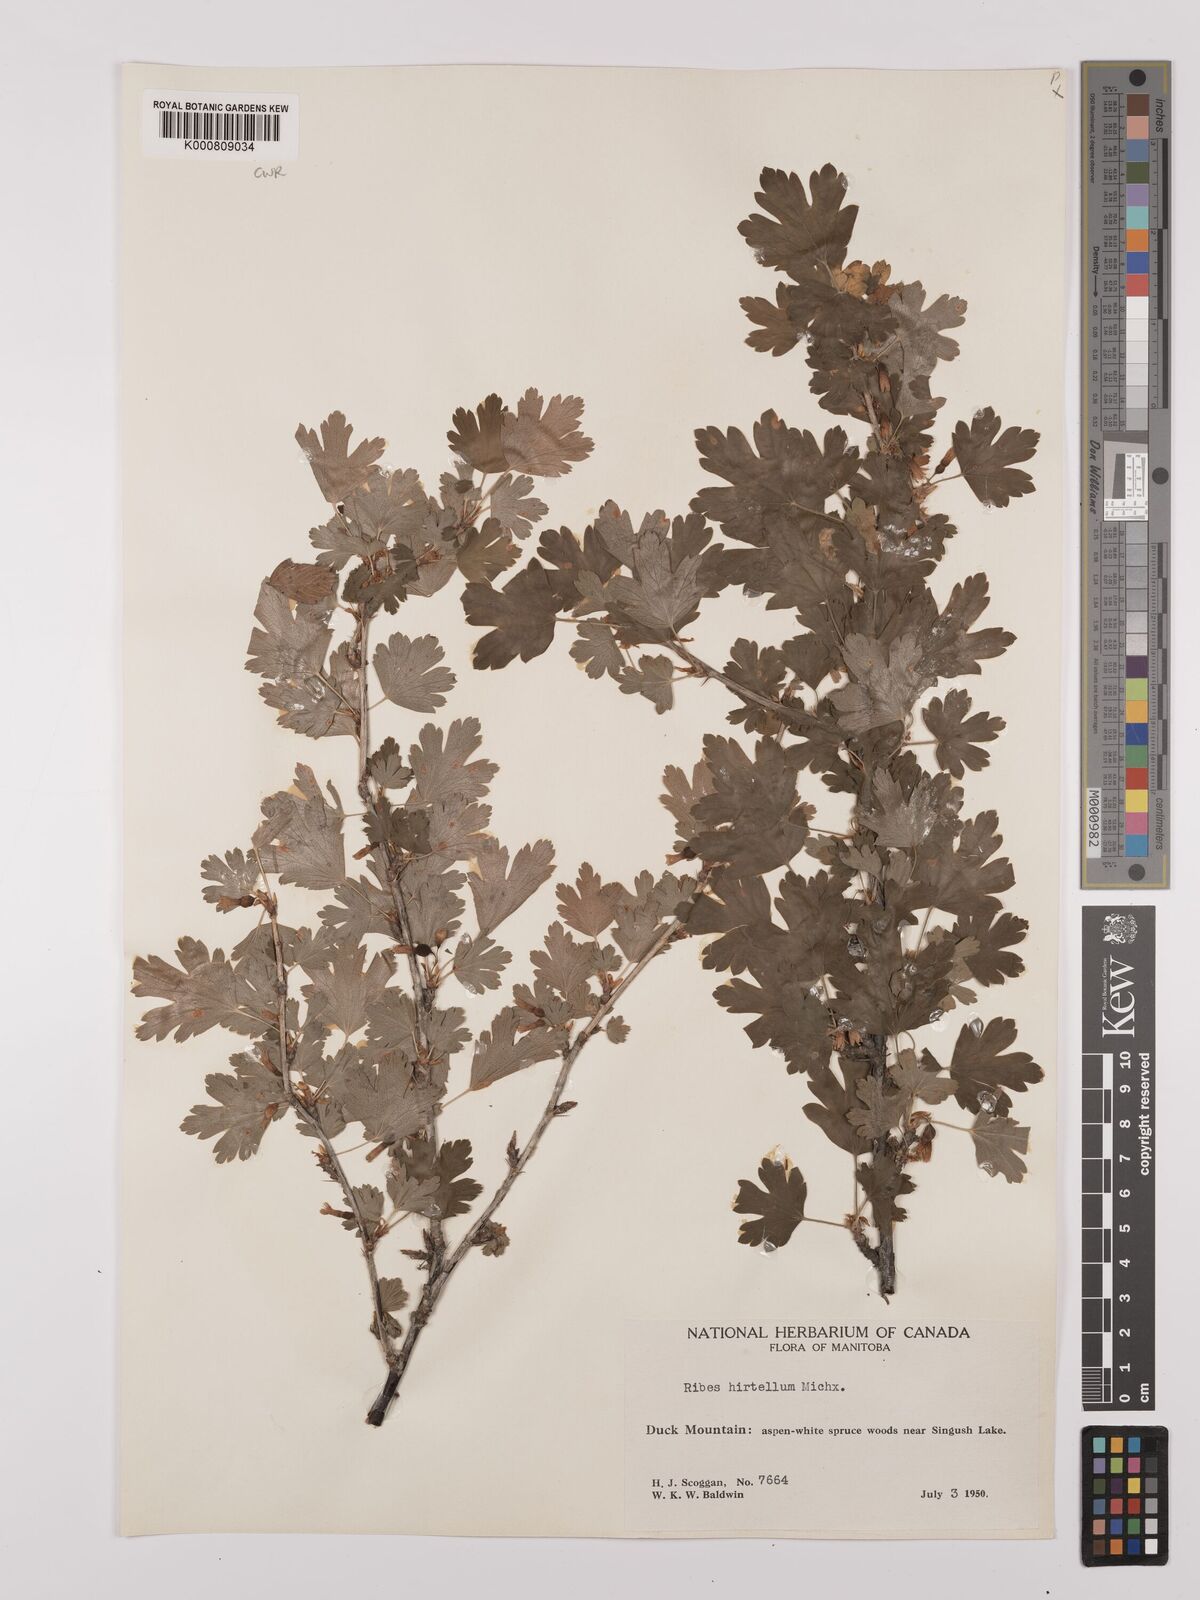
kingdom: Plantae
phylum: Tracheophyta
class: Magnoliopsida
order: Saxifragales
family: Grossulariaceae
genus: Ribes
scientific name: Ribes hirtellum
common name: Hairy gooseberry
